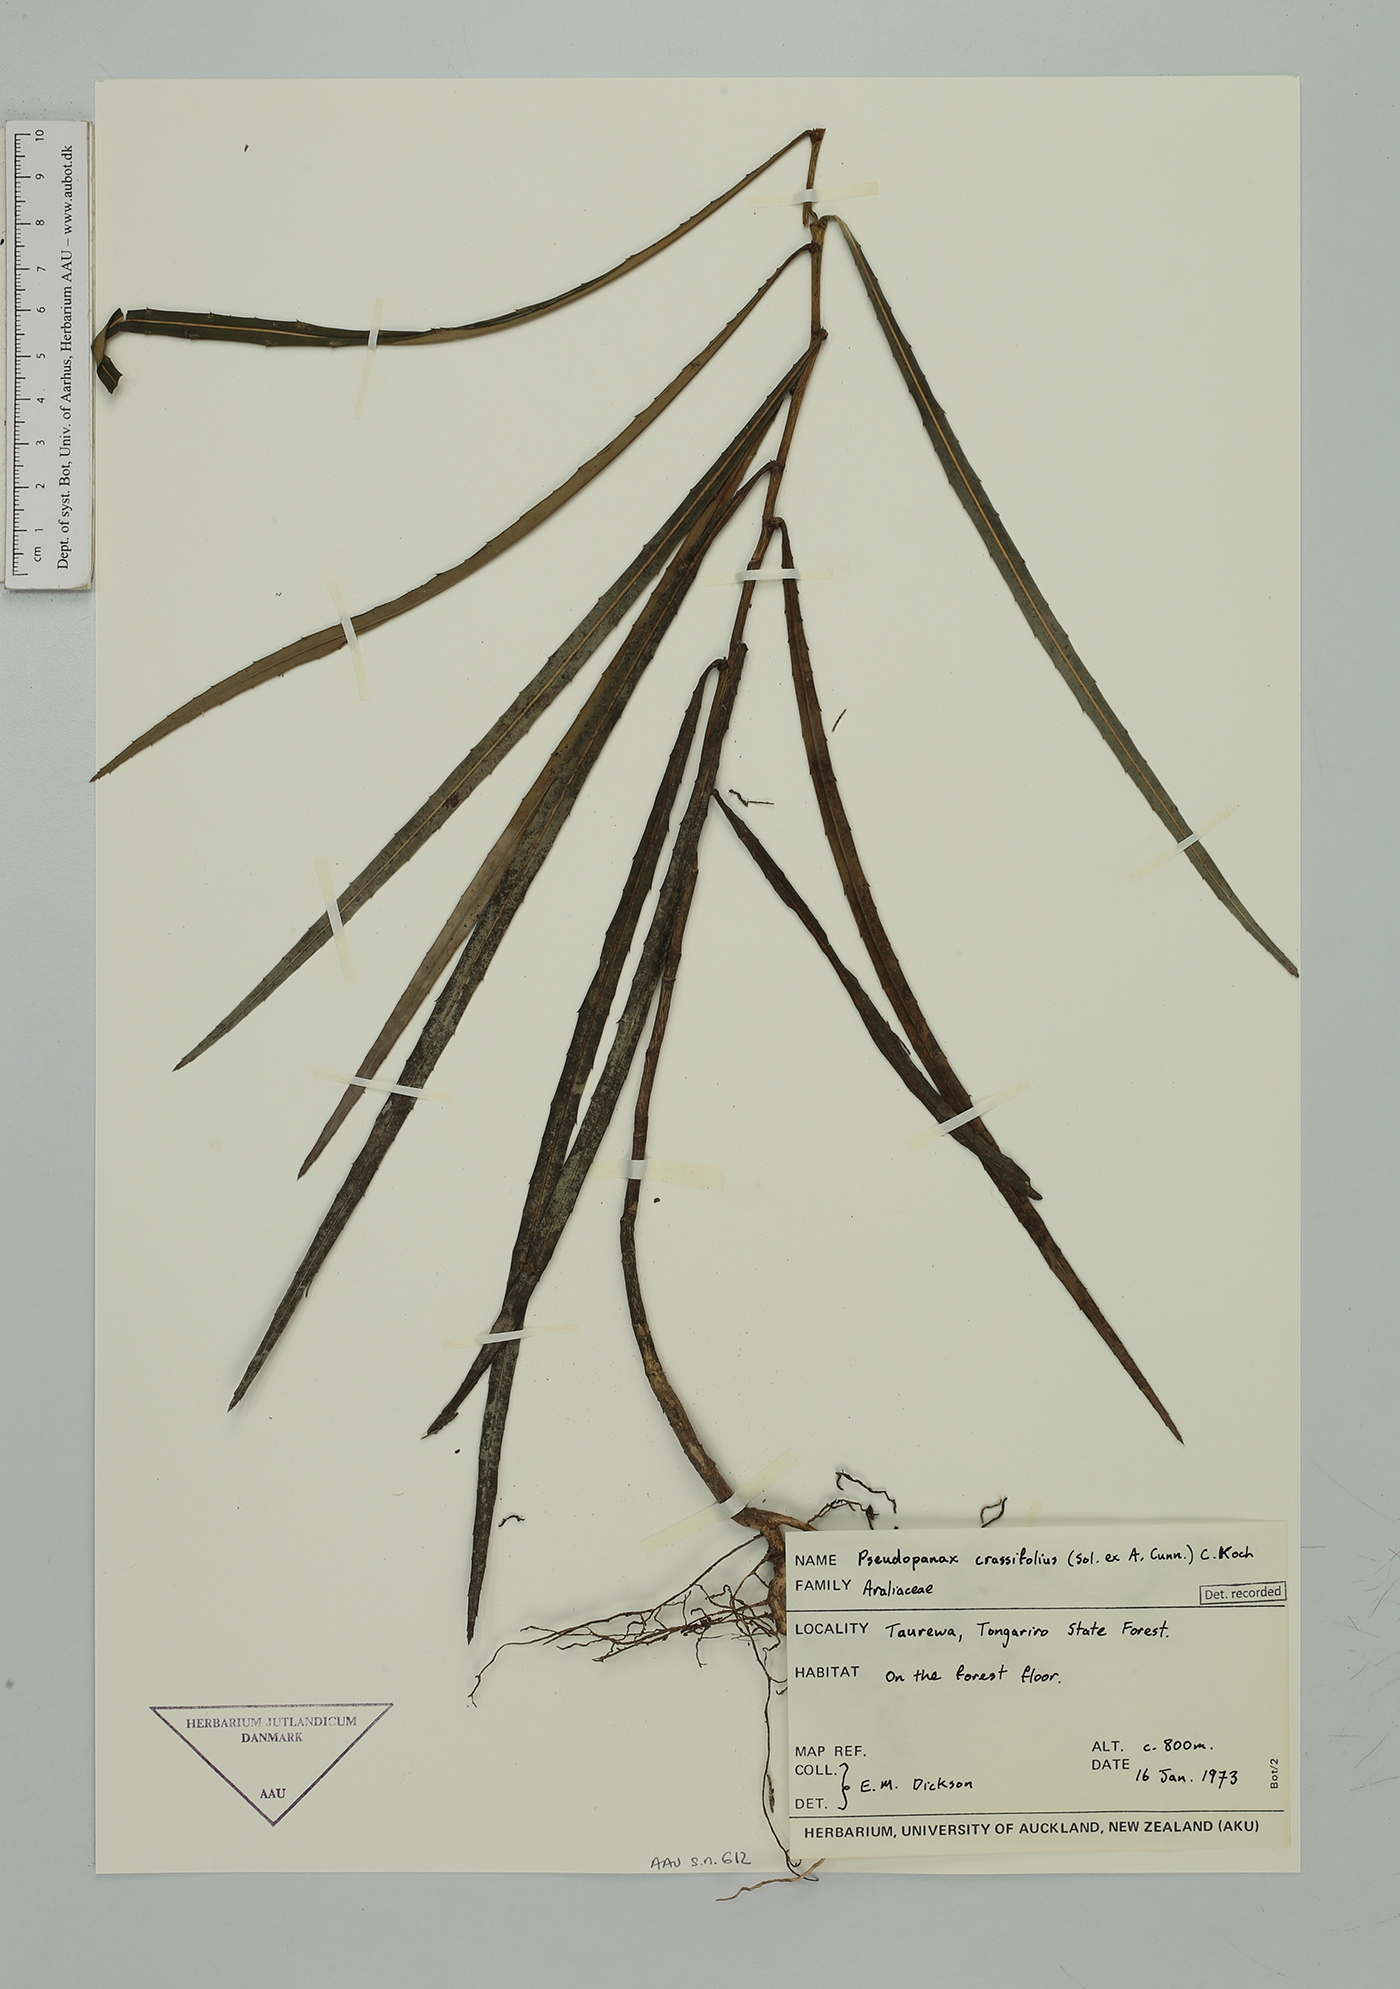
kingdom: Plantae
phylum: Tracheophyta
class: Magnoliopsida
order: Apiales
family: Araliaceae
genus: Pseudopanax
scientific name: Pseudopanax crassifolius
